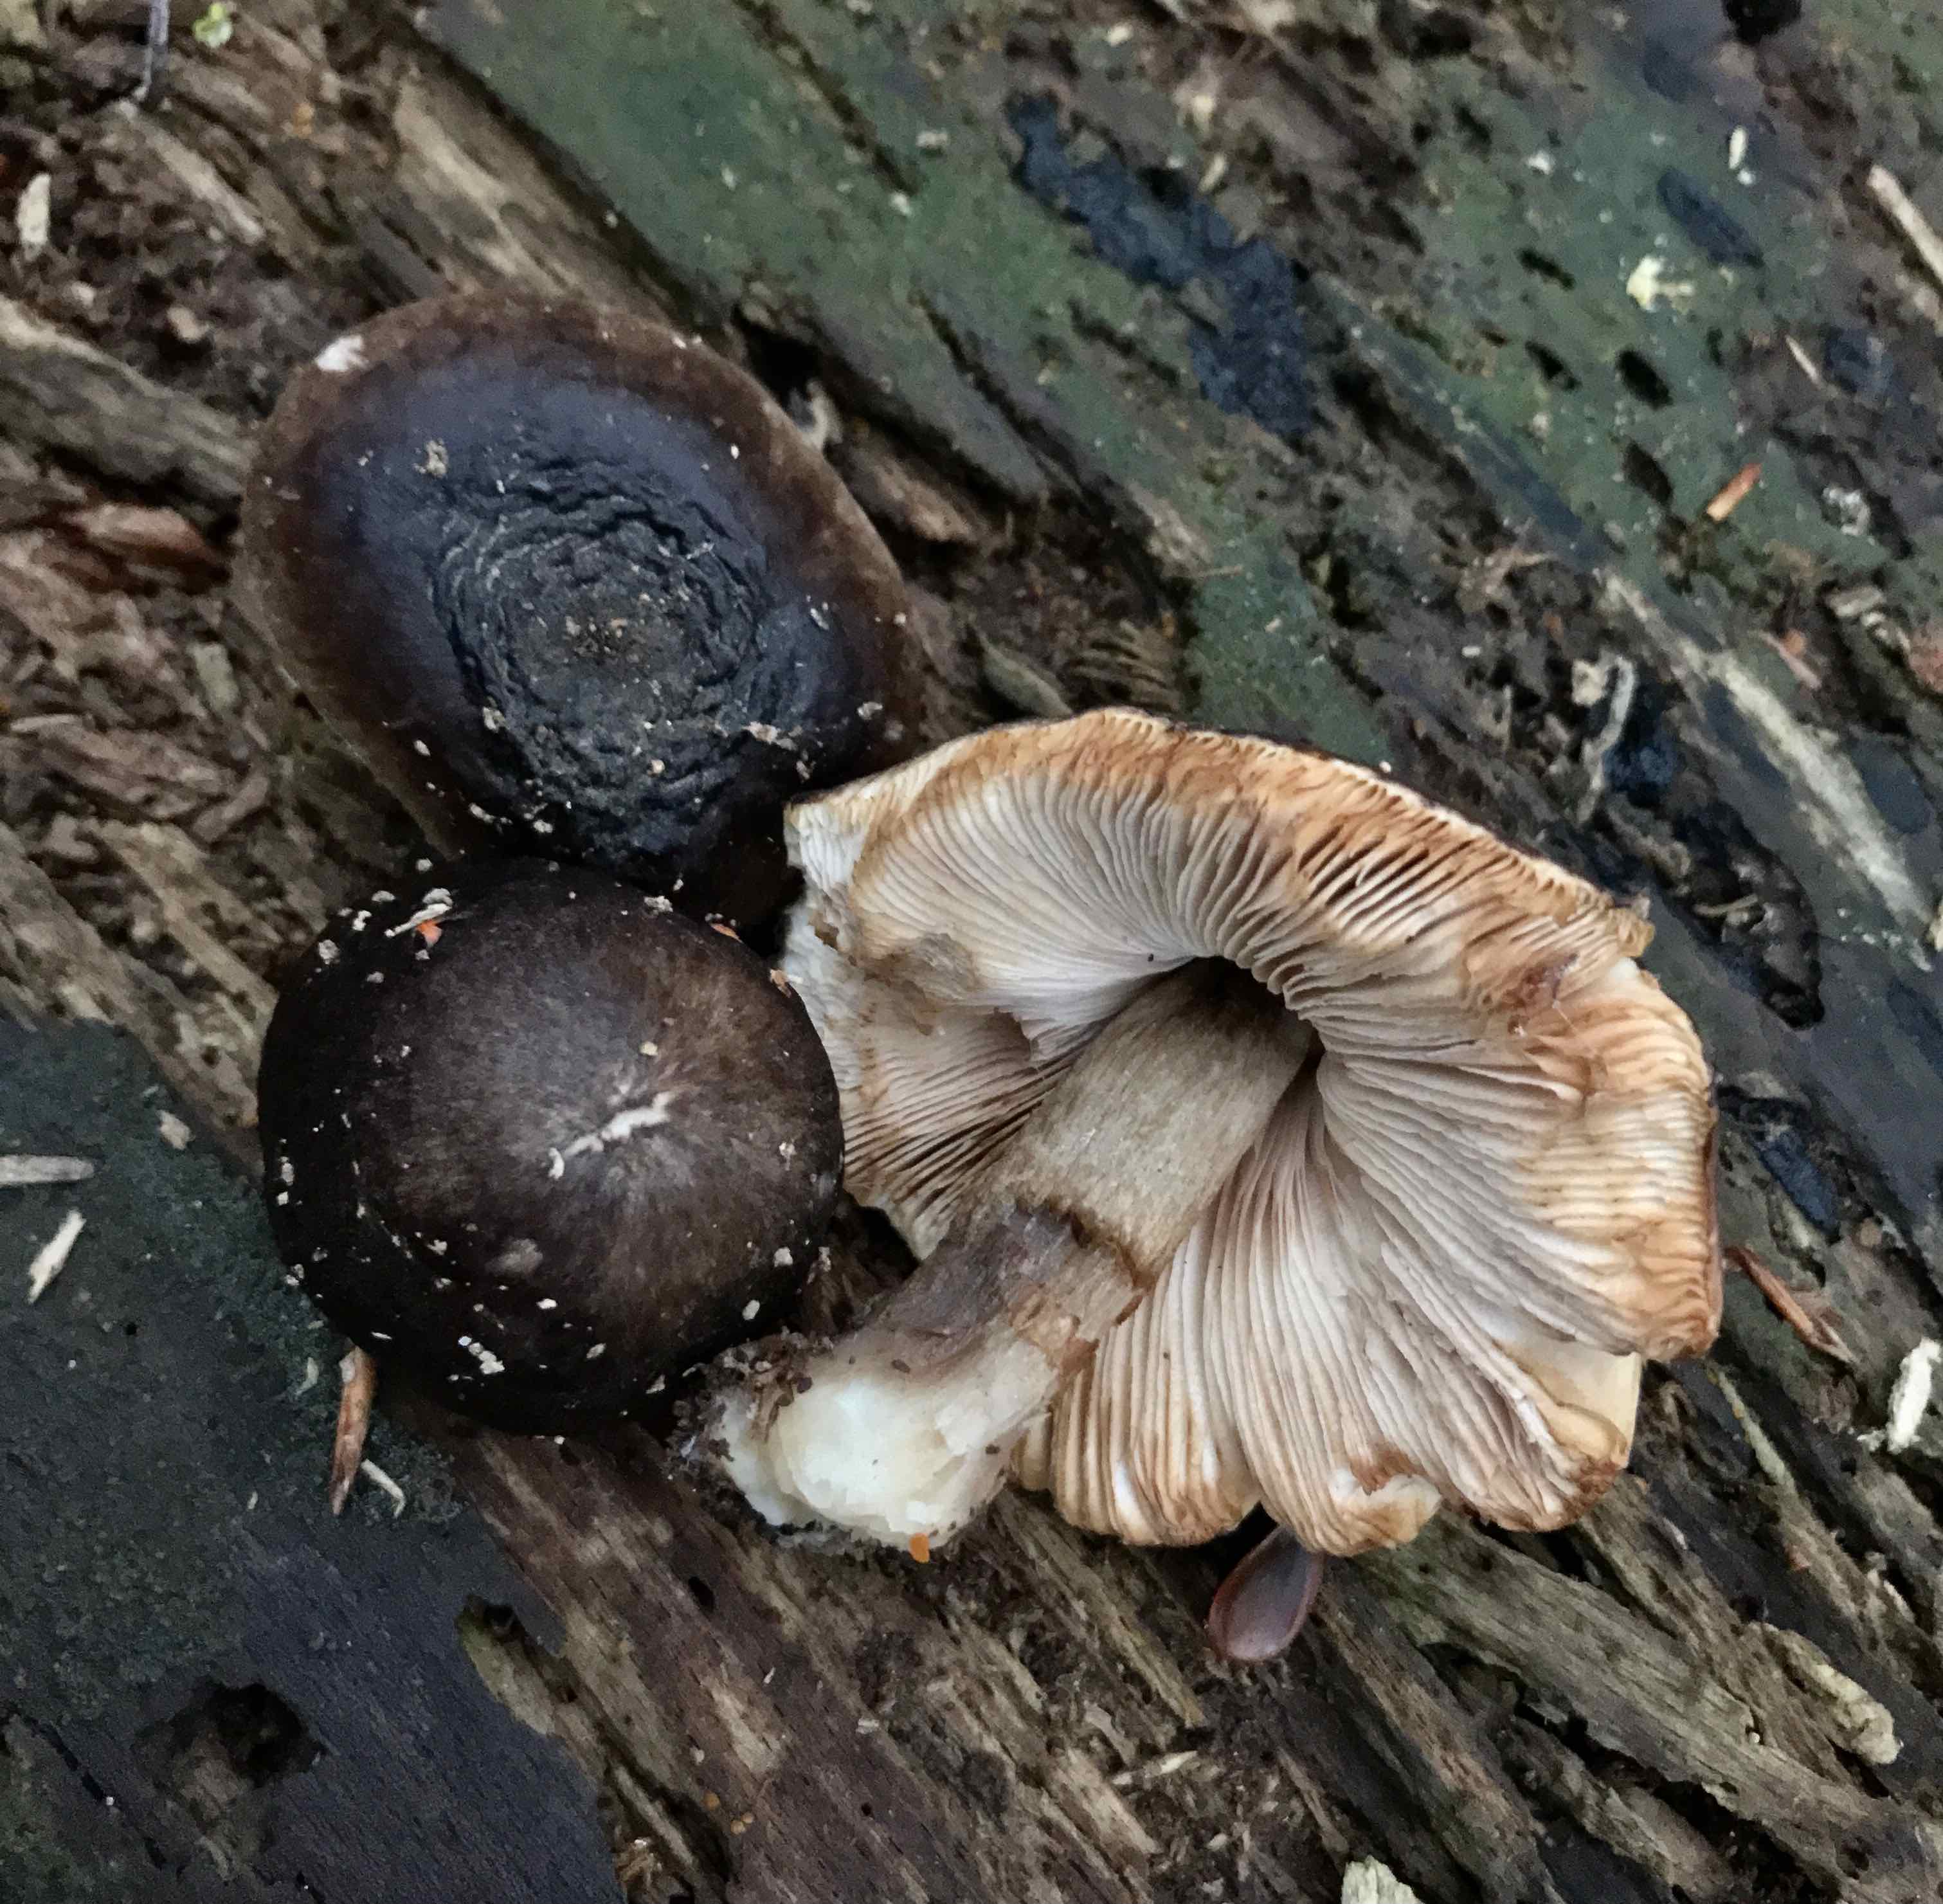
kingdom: Fungi
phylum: Basidiomycota
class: Agaricomycetes
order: Agaricales
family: Pluteaceae
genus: Pluteus
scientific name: Pluteus cervinus
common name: sodfarvet skærmhat
